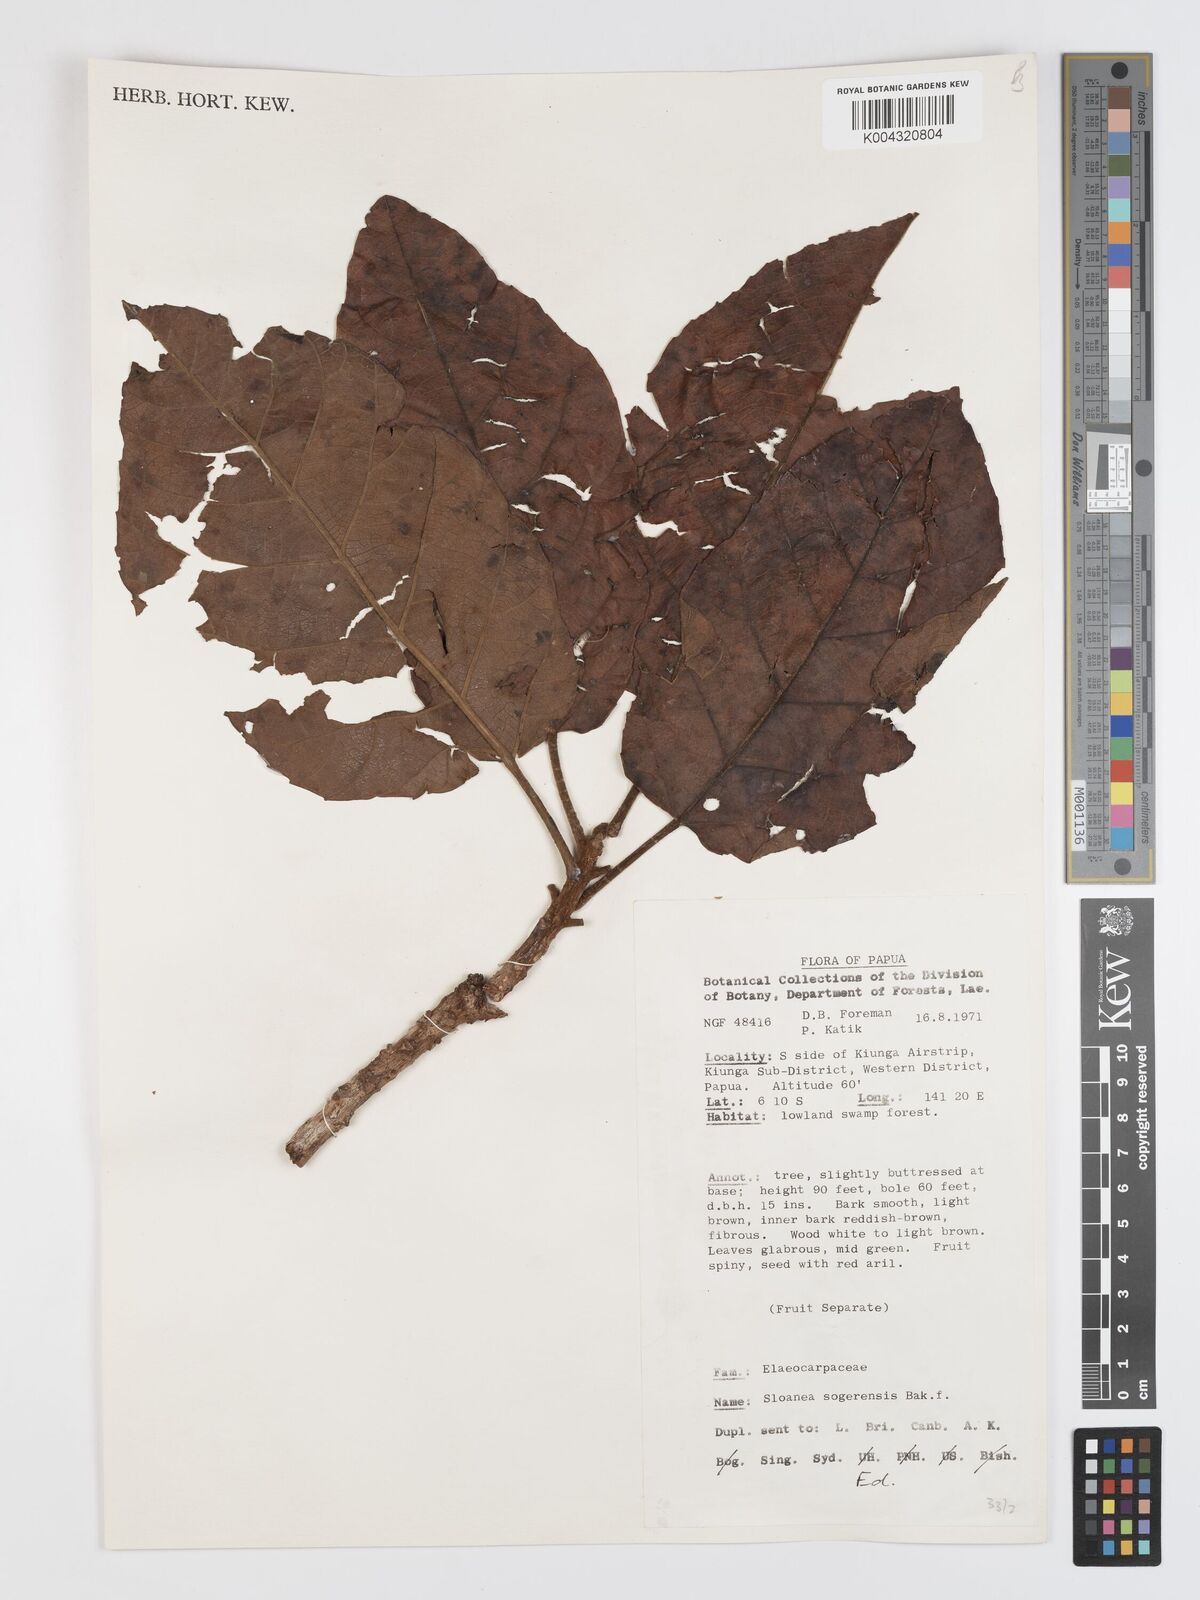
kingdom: Plantae
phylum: Tracheophyta
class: Magnoliopsida
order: Oxalidales
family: Elaeocarpaceae
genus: Sloanea
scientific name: Sloanea sogerensis
